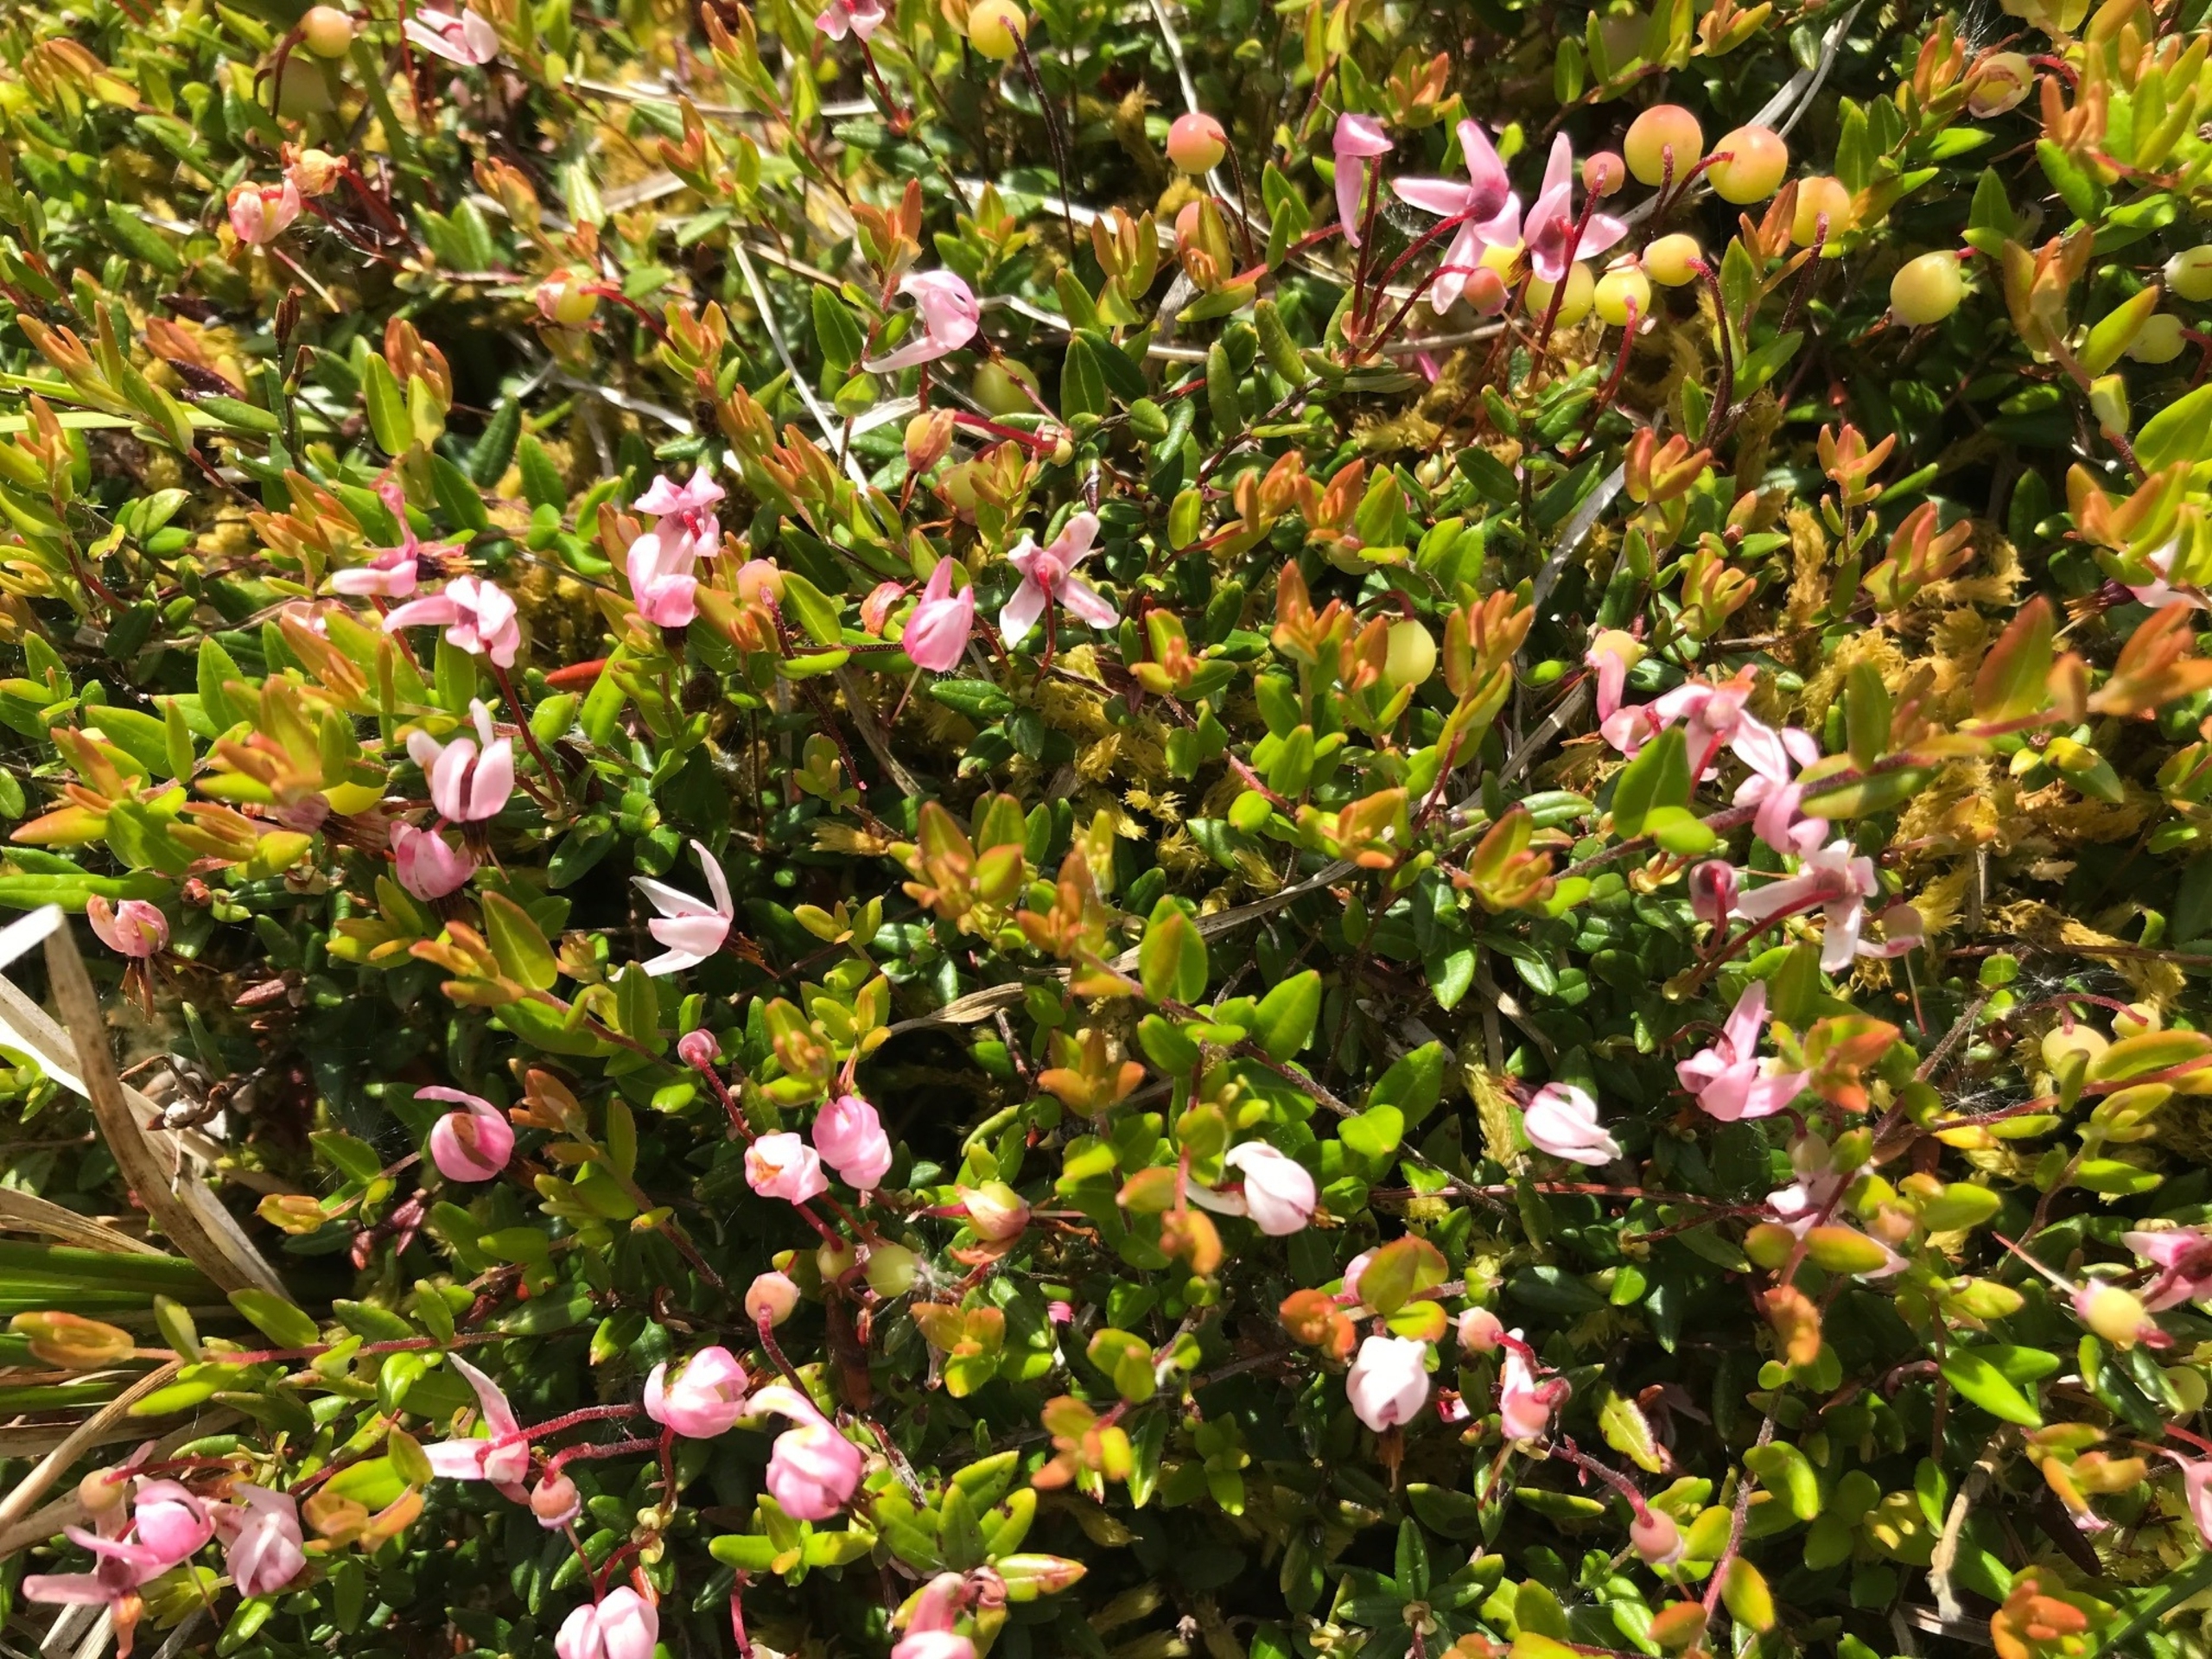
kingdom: Plantae
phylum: Tracheophyta
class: Magnoliopsida
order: Ericales
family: Ericaceae
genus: Vaccinium
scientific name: Vaccinium oxycoccos
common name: Tranebær
